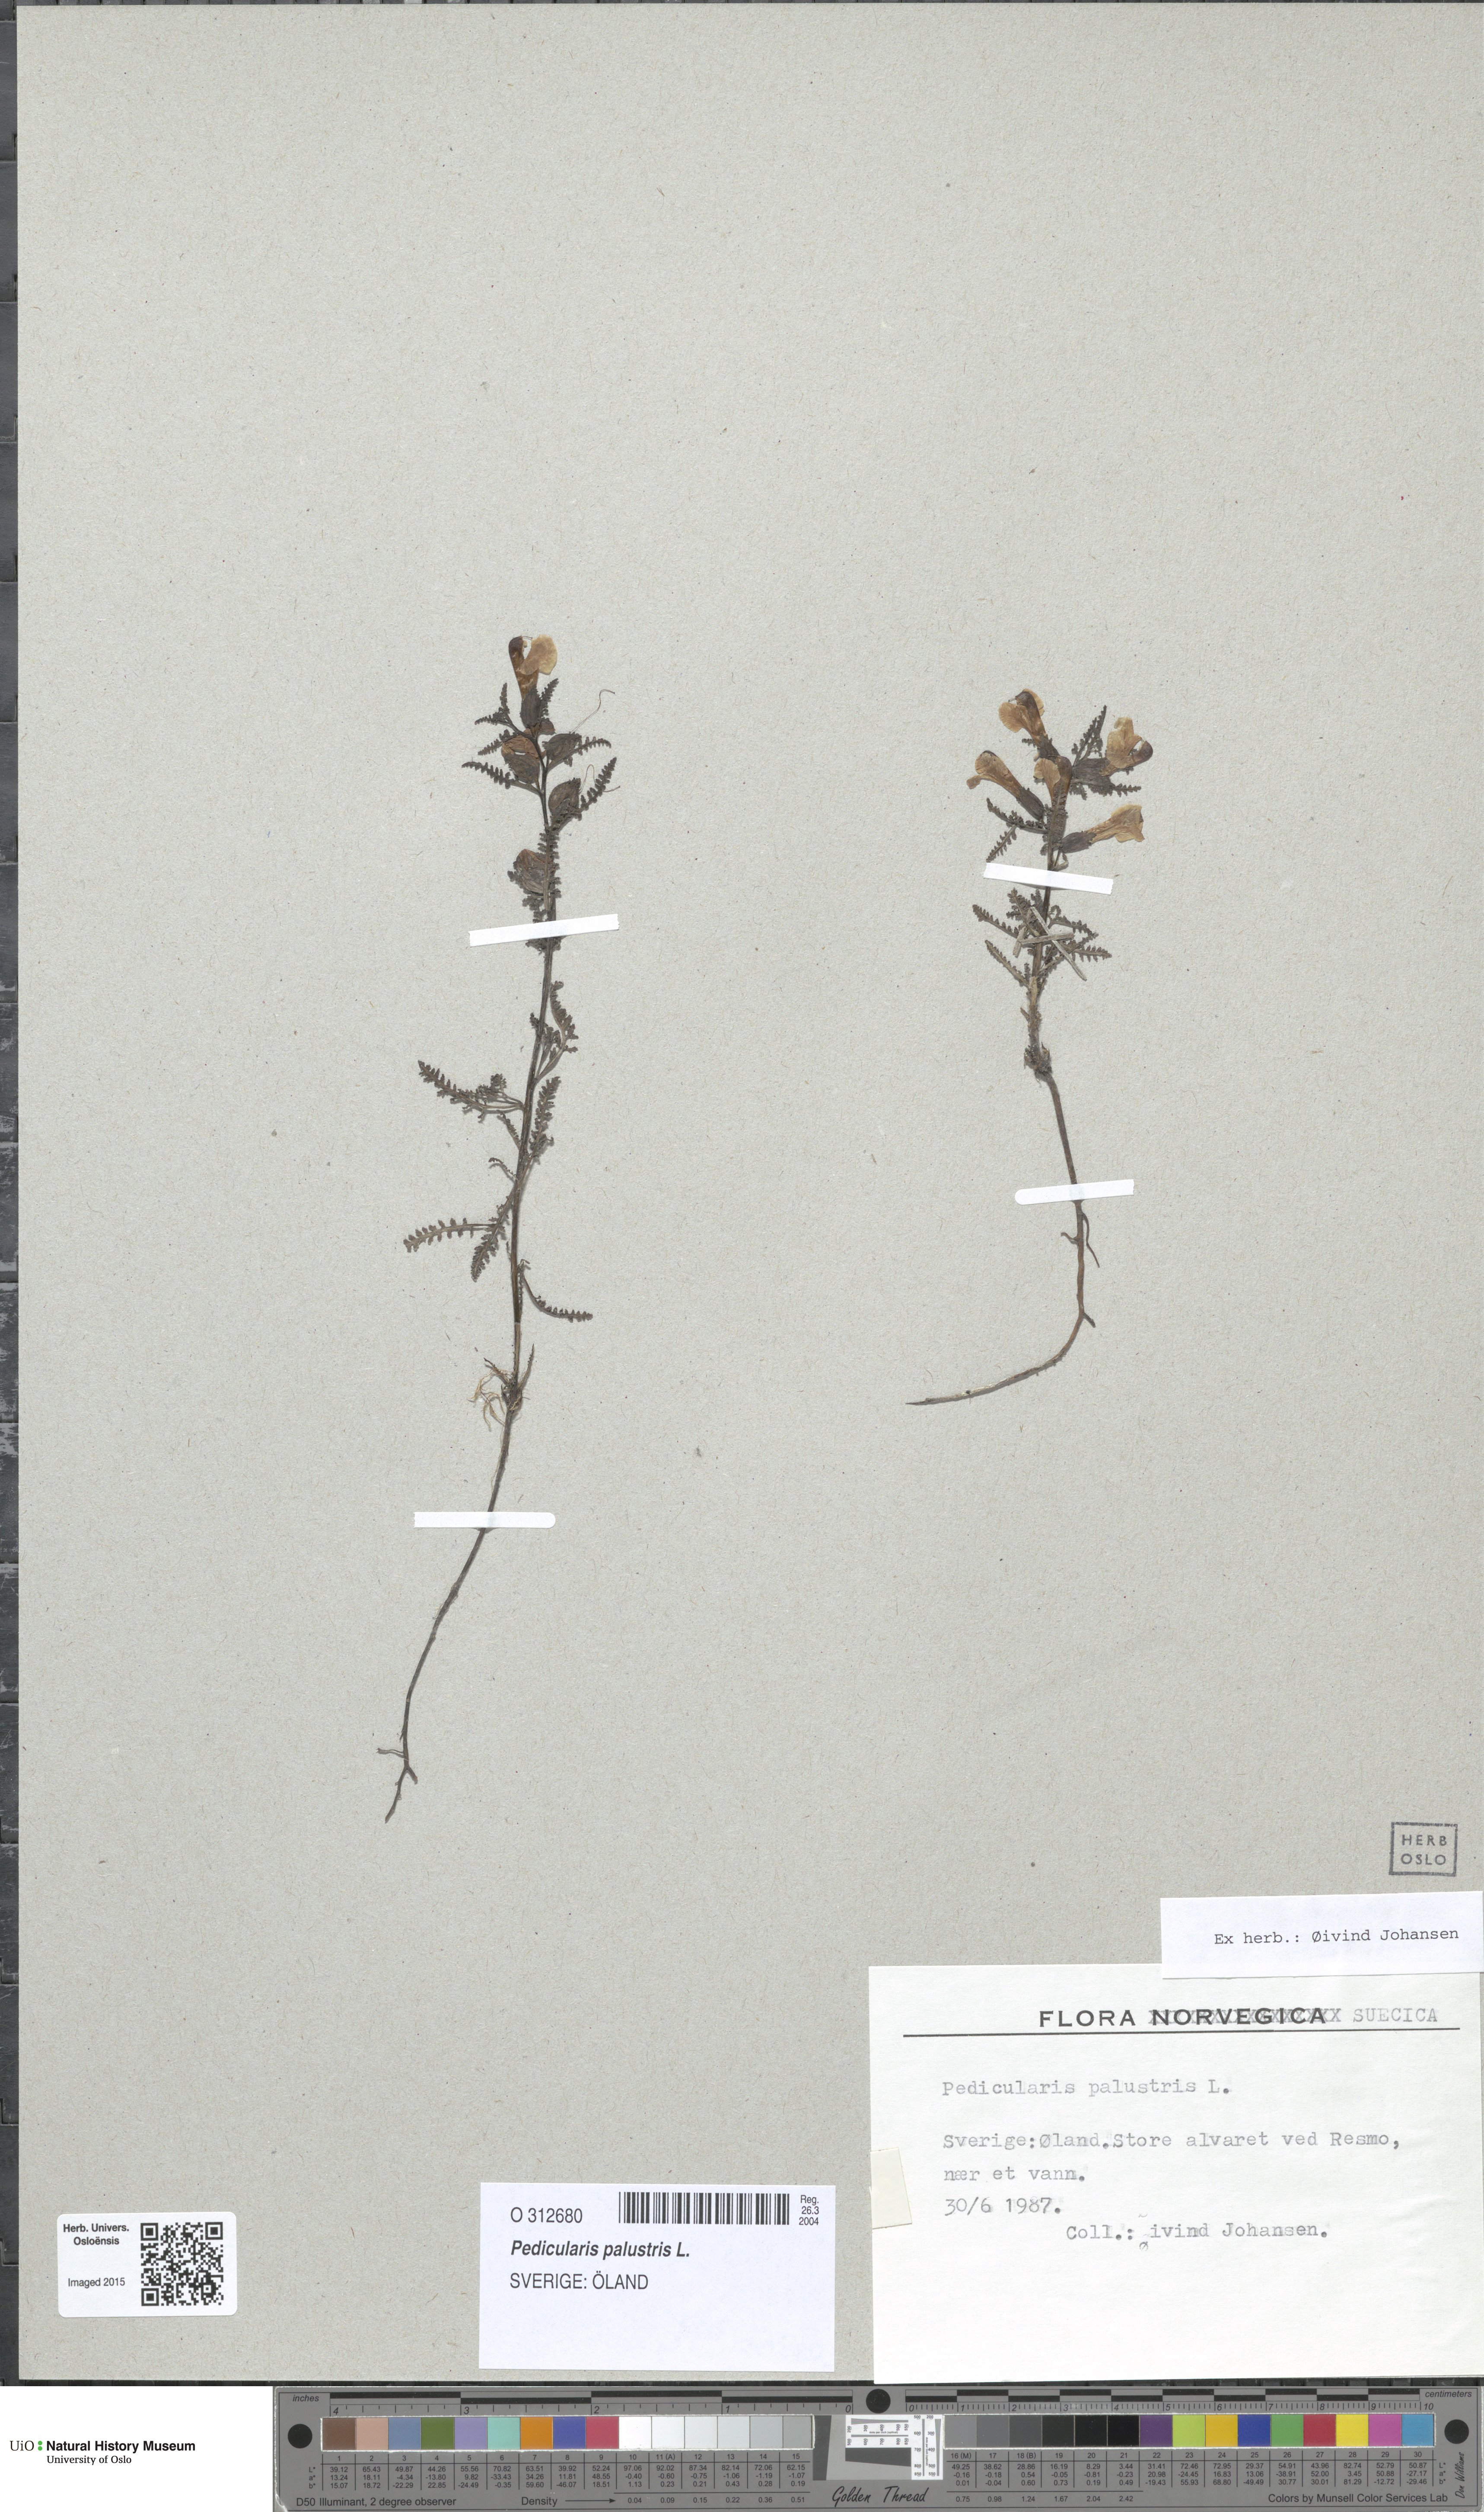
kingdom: Plantae
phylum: Tracheophyta
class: Magnoliopsida
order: Lamiales
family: Orobanchaceae
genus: Pedicularis
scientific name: Pedicularis palustris
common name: Marsh lousewort
